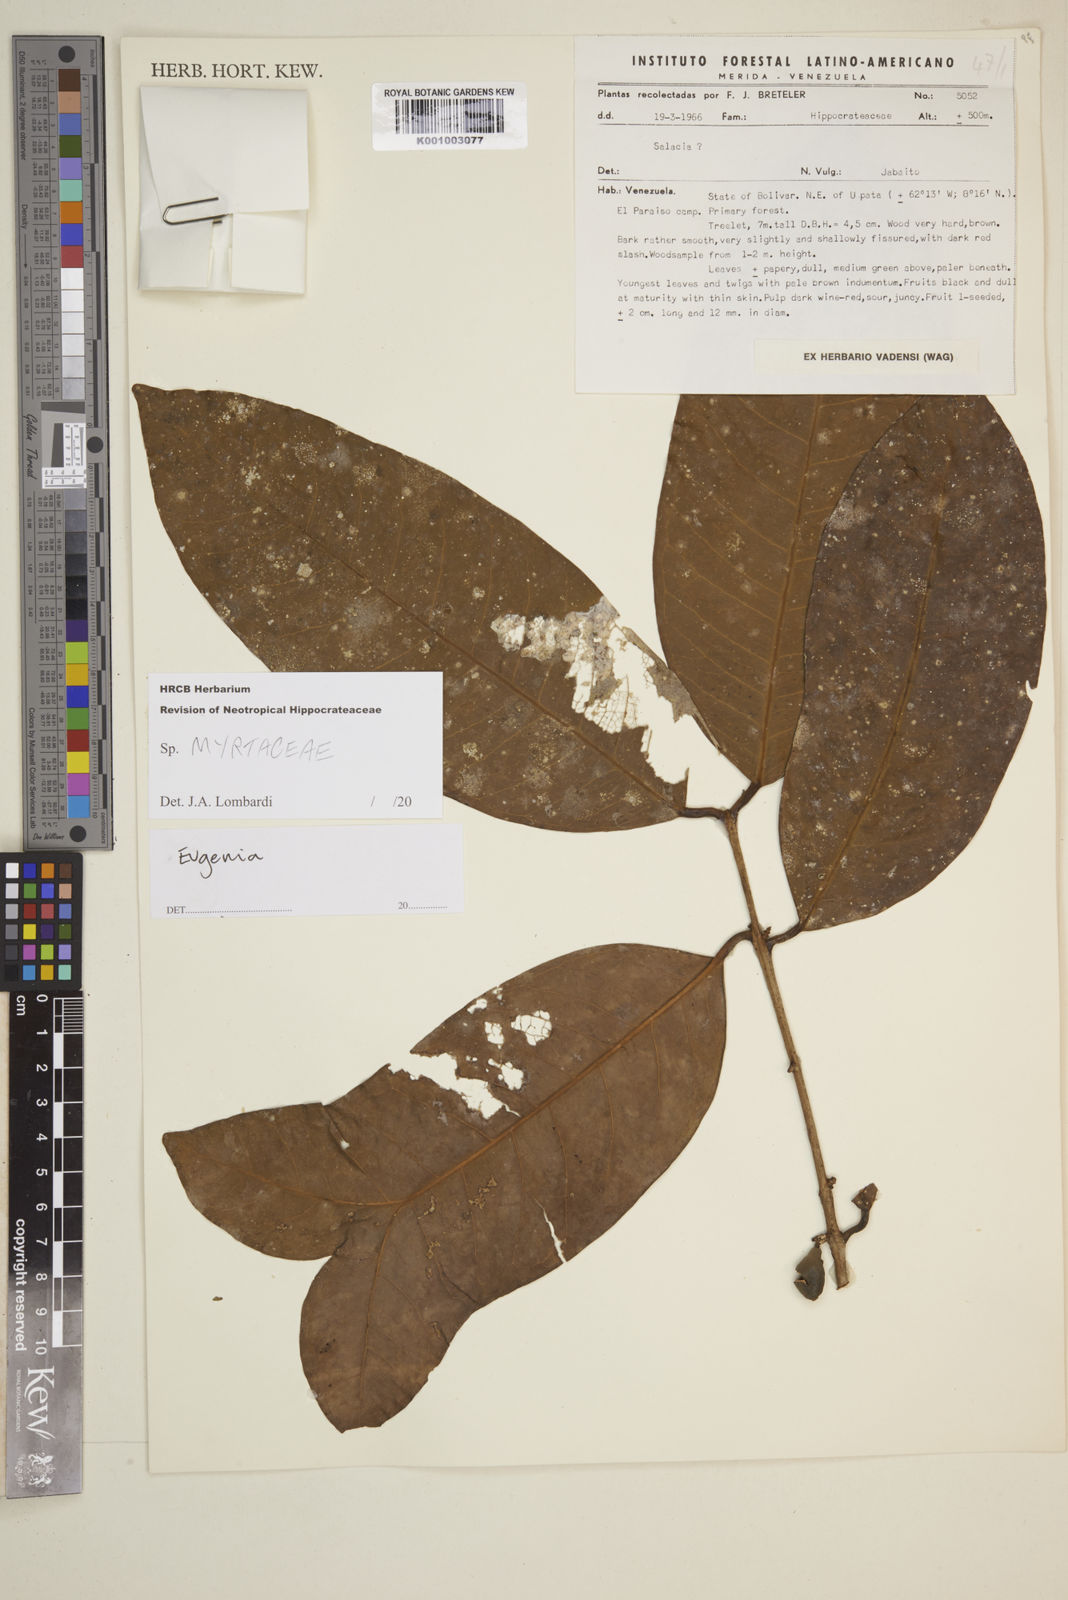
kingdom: Plantae
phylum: Tracheophyta
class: Magnoliopsida
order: Myrtales
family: Myrtaceae
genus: Eugenia
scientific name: Eugenia
